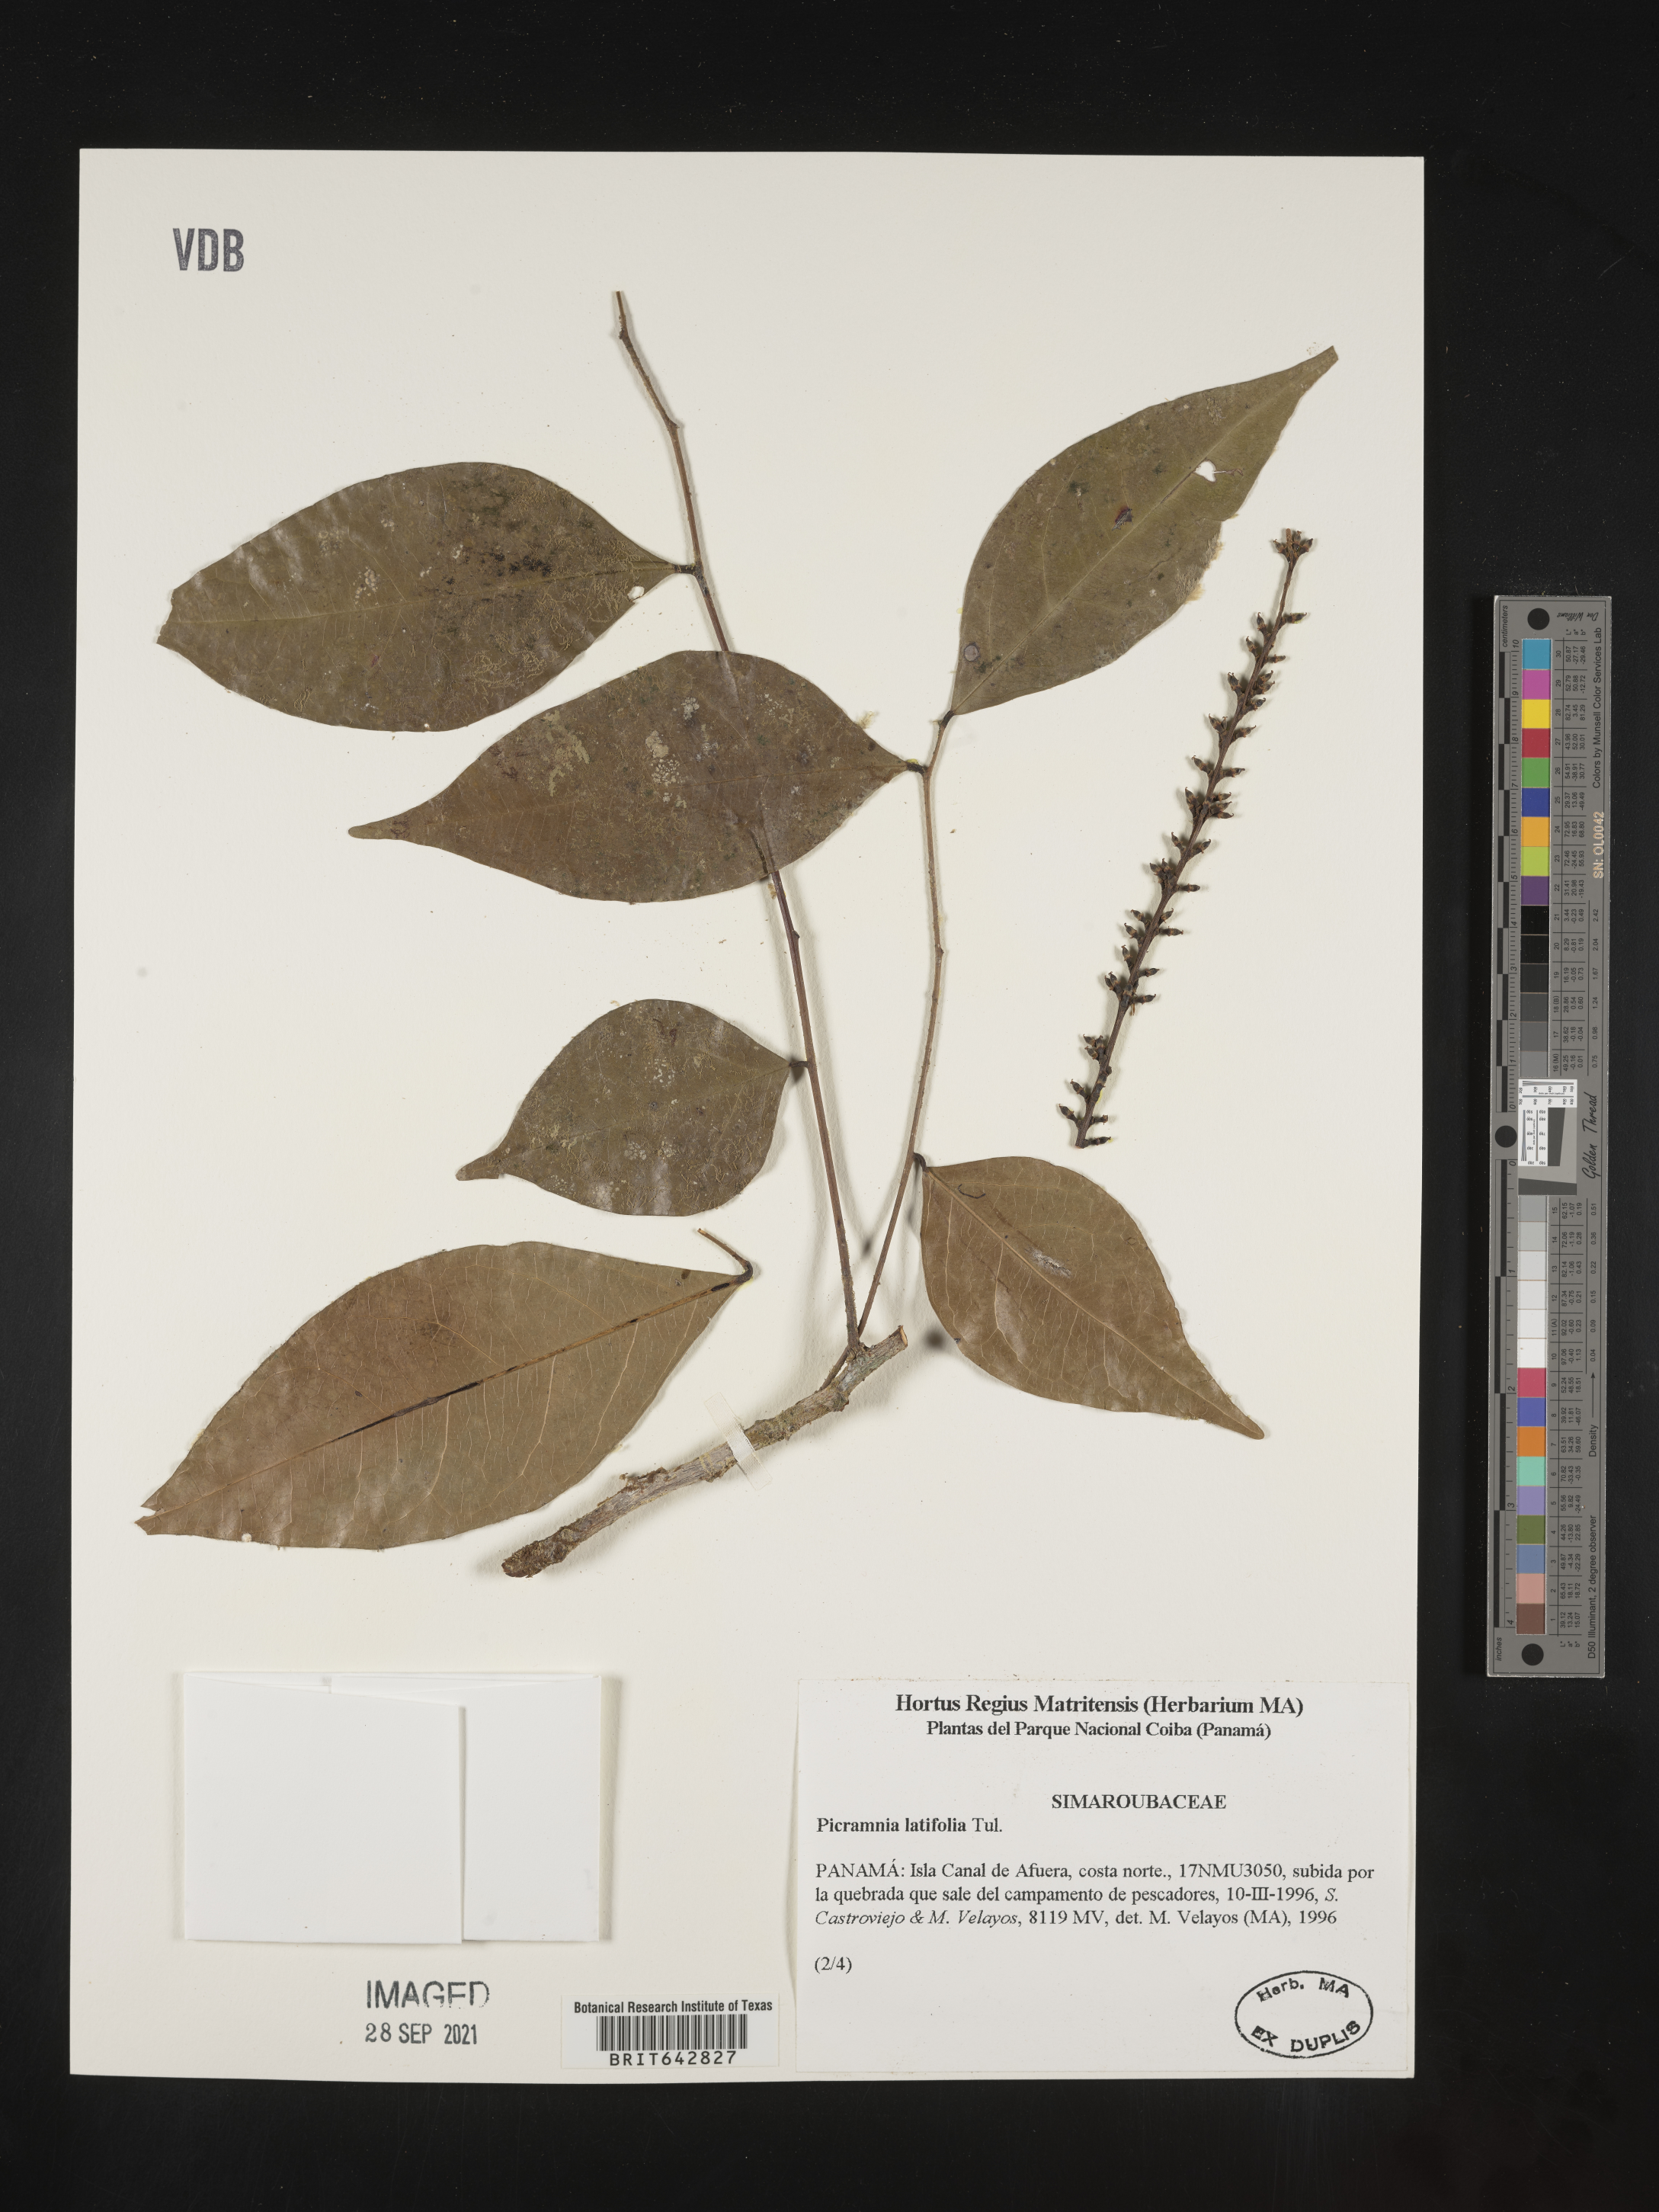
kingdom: Plantae
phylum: Tracheophyta
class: Magnoliopsida
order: Picramniales
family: Picramniaceae
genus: Picramnia
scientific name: Picramnia
